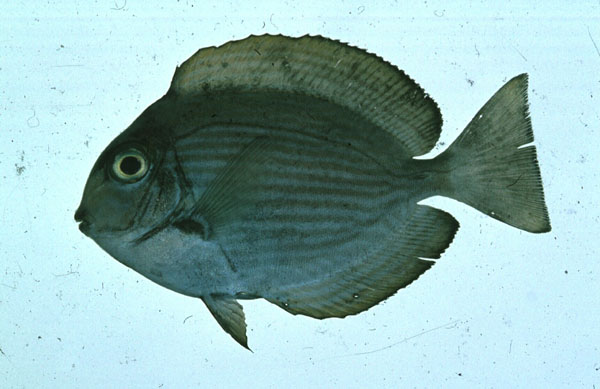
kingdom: Animalia
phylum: Chordata
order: Perciformes
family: Acanthuridae
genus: Acanthurus
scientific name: Acanthurus mata
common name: Bleeker's surgeonfish
